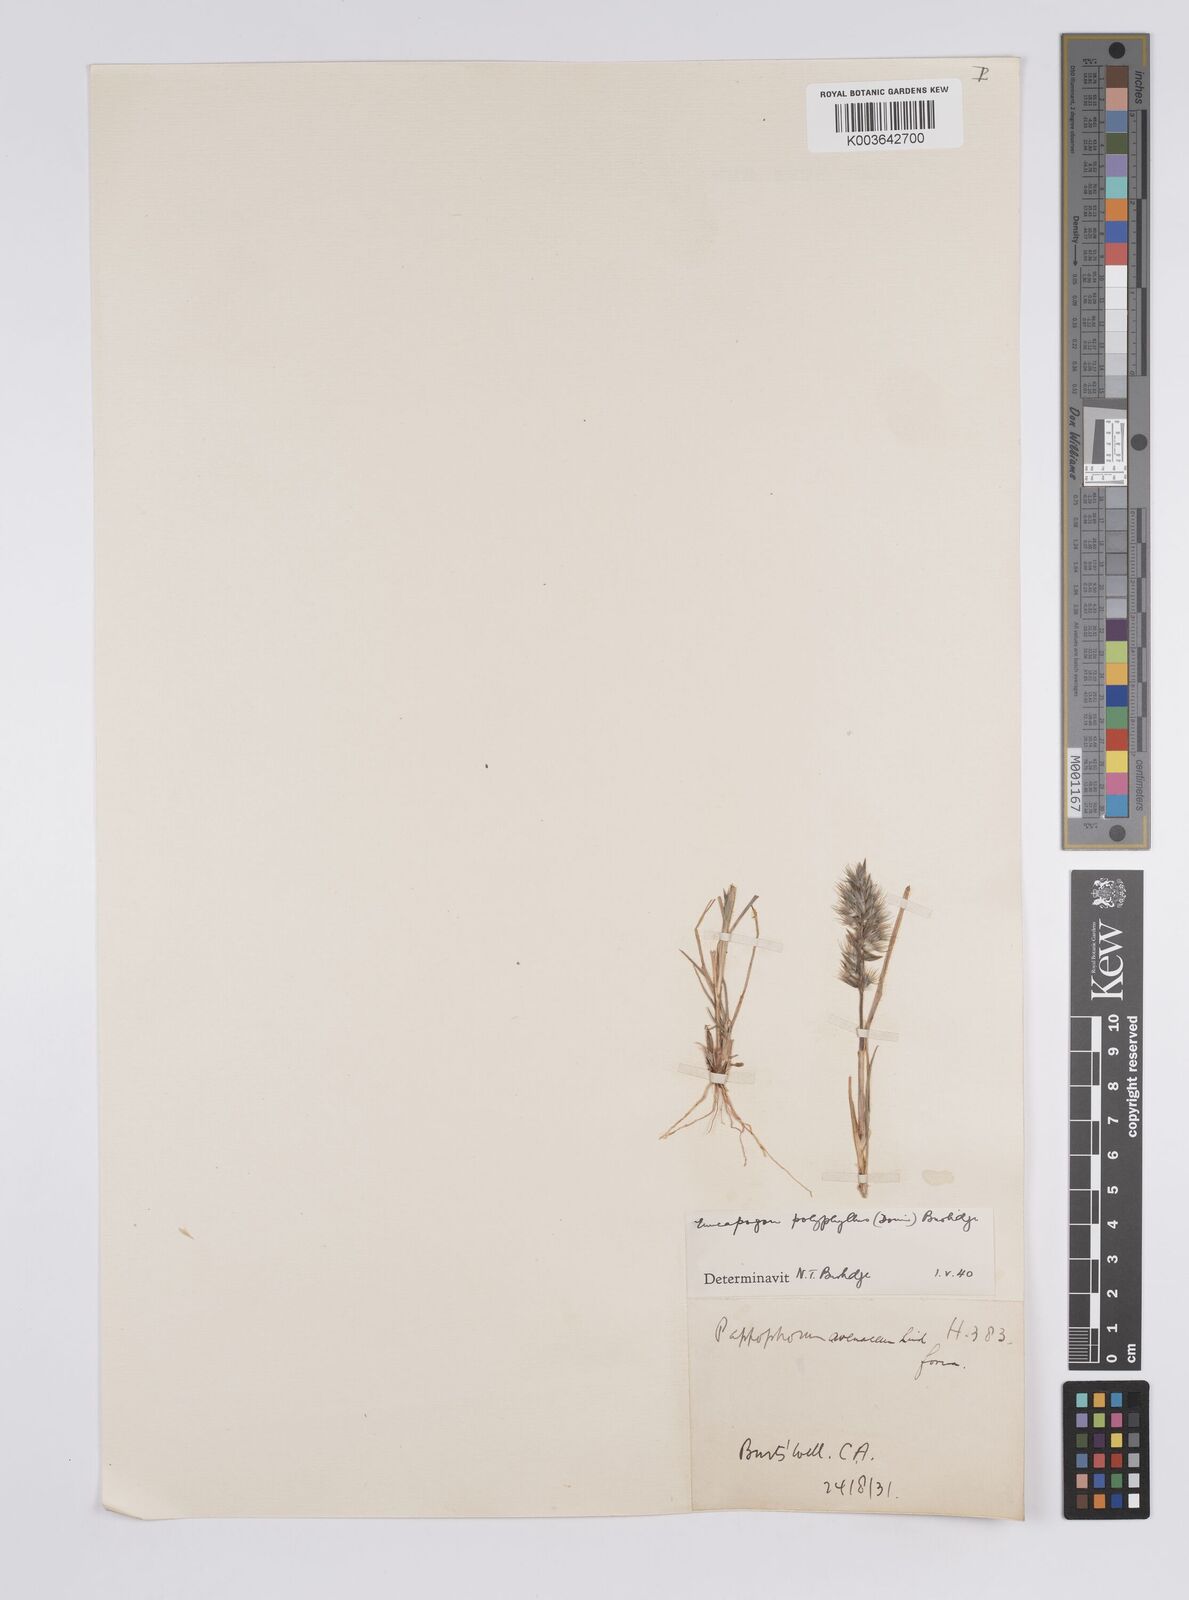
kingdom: Plantae
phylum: Tracheophyta
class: Liliopsida
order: Poales
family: Poaceae
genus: Enneapogon
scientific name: Enneapogon polyphyllus
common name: Leafy nineawn
